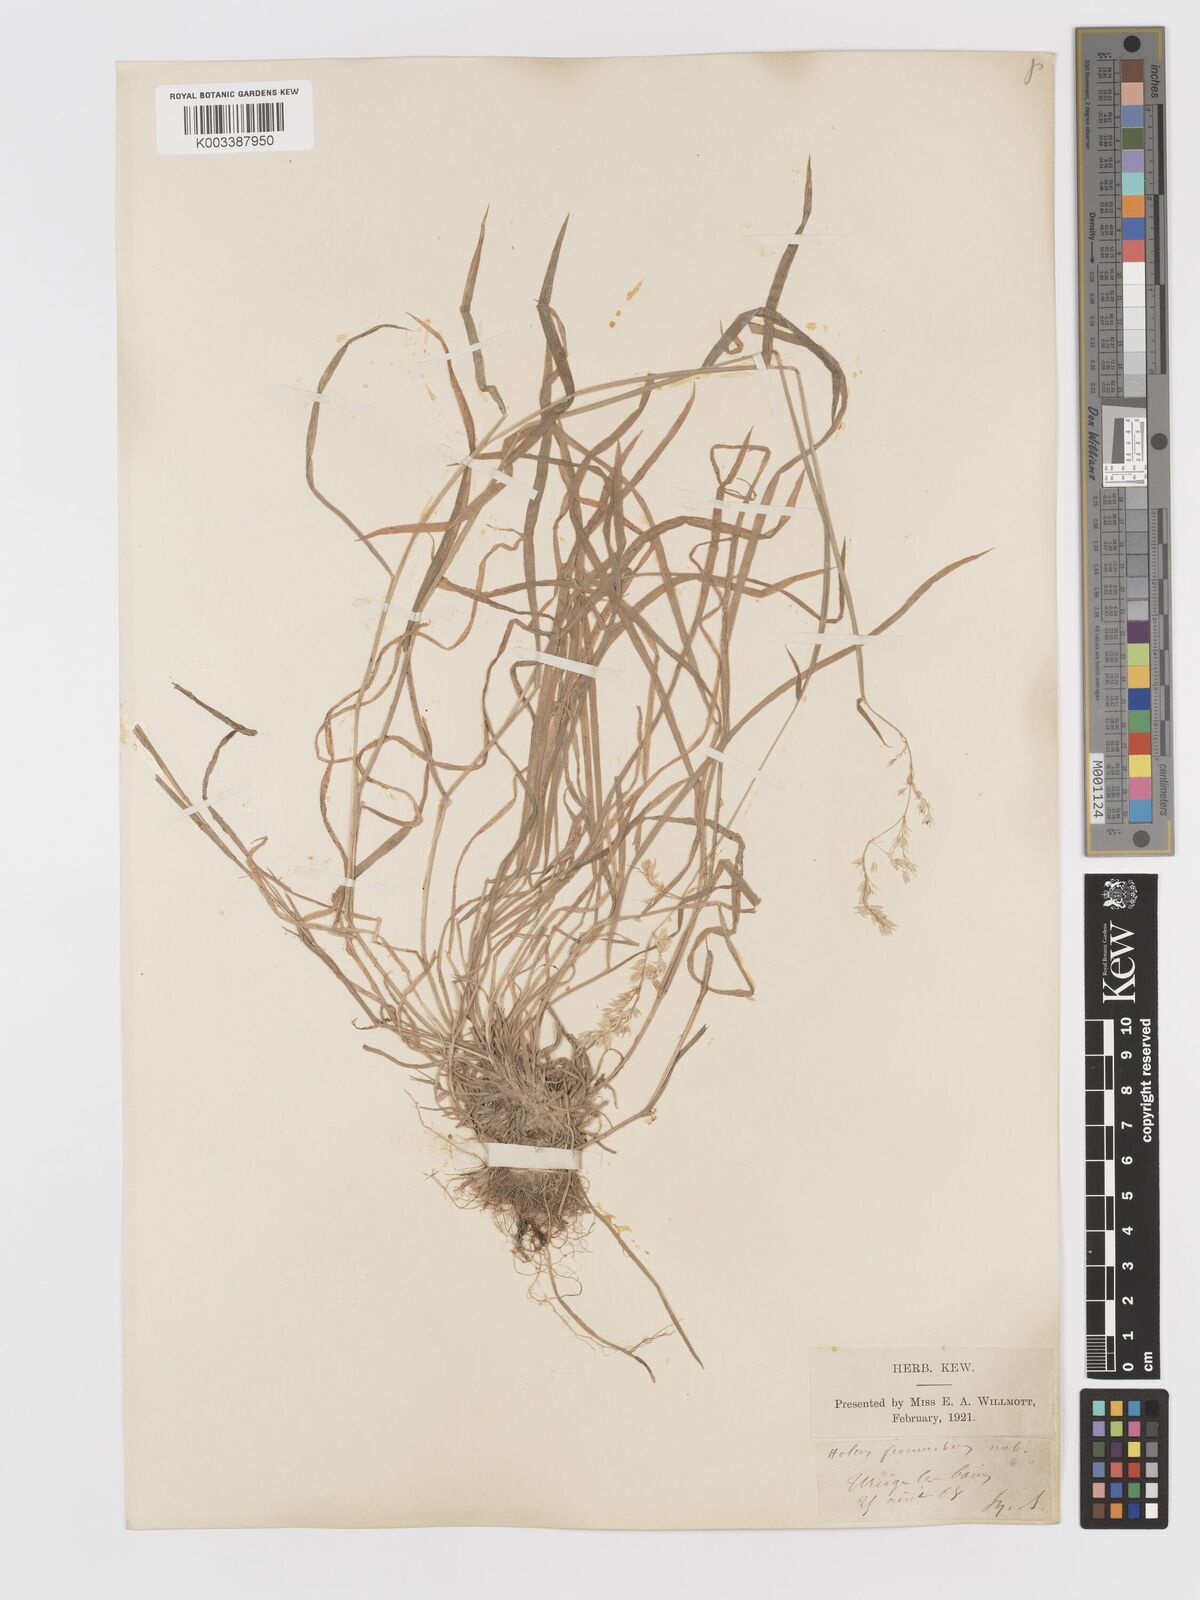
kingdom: Plantae
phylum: Tracheophyta
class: Liliopsida
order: Poales
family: Poaceae
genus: Holcus
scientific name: Holcus lanatus
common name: Yorkshire-fog
